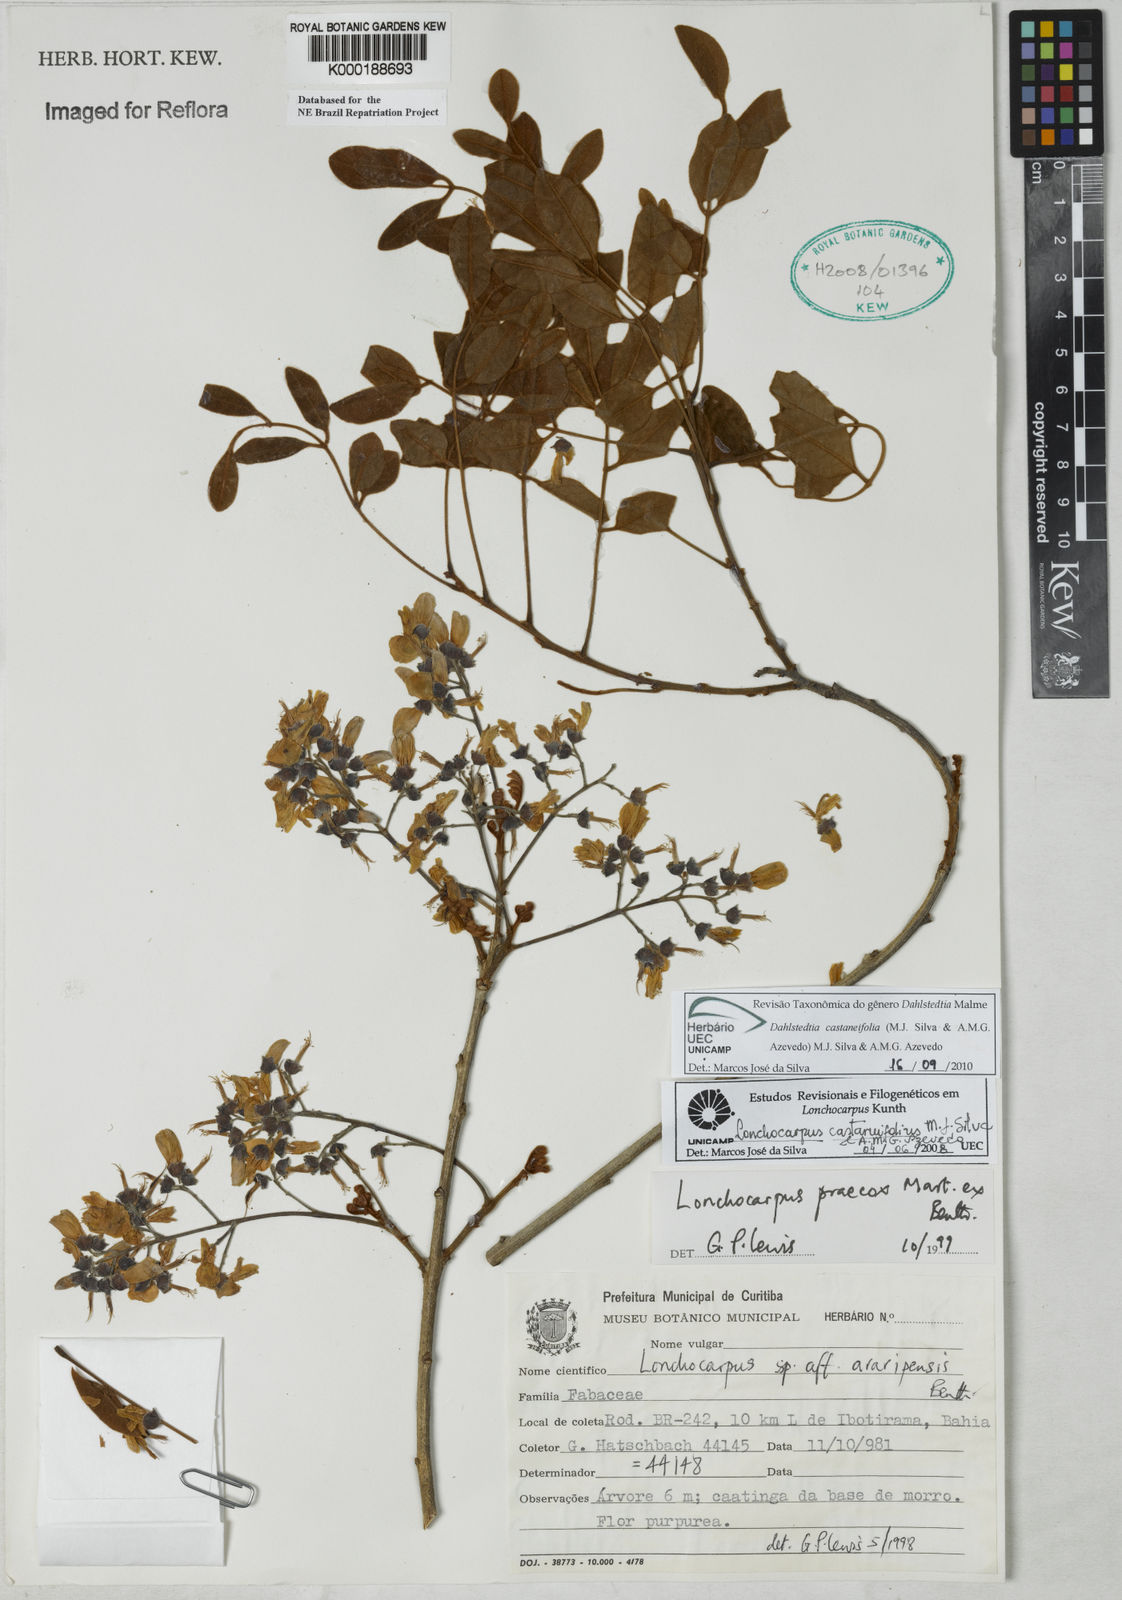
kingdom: Plantae
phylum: Tracheophyta
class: Magnoliopsida
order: Fabales
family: Fabaceae
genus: Lonchocarpus
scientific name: Lonchocarpus praecox
